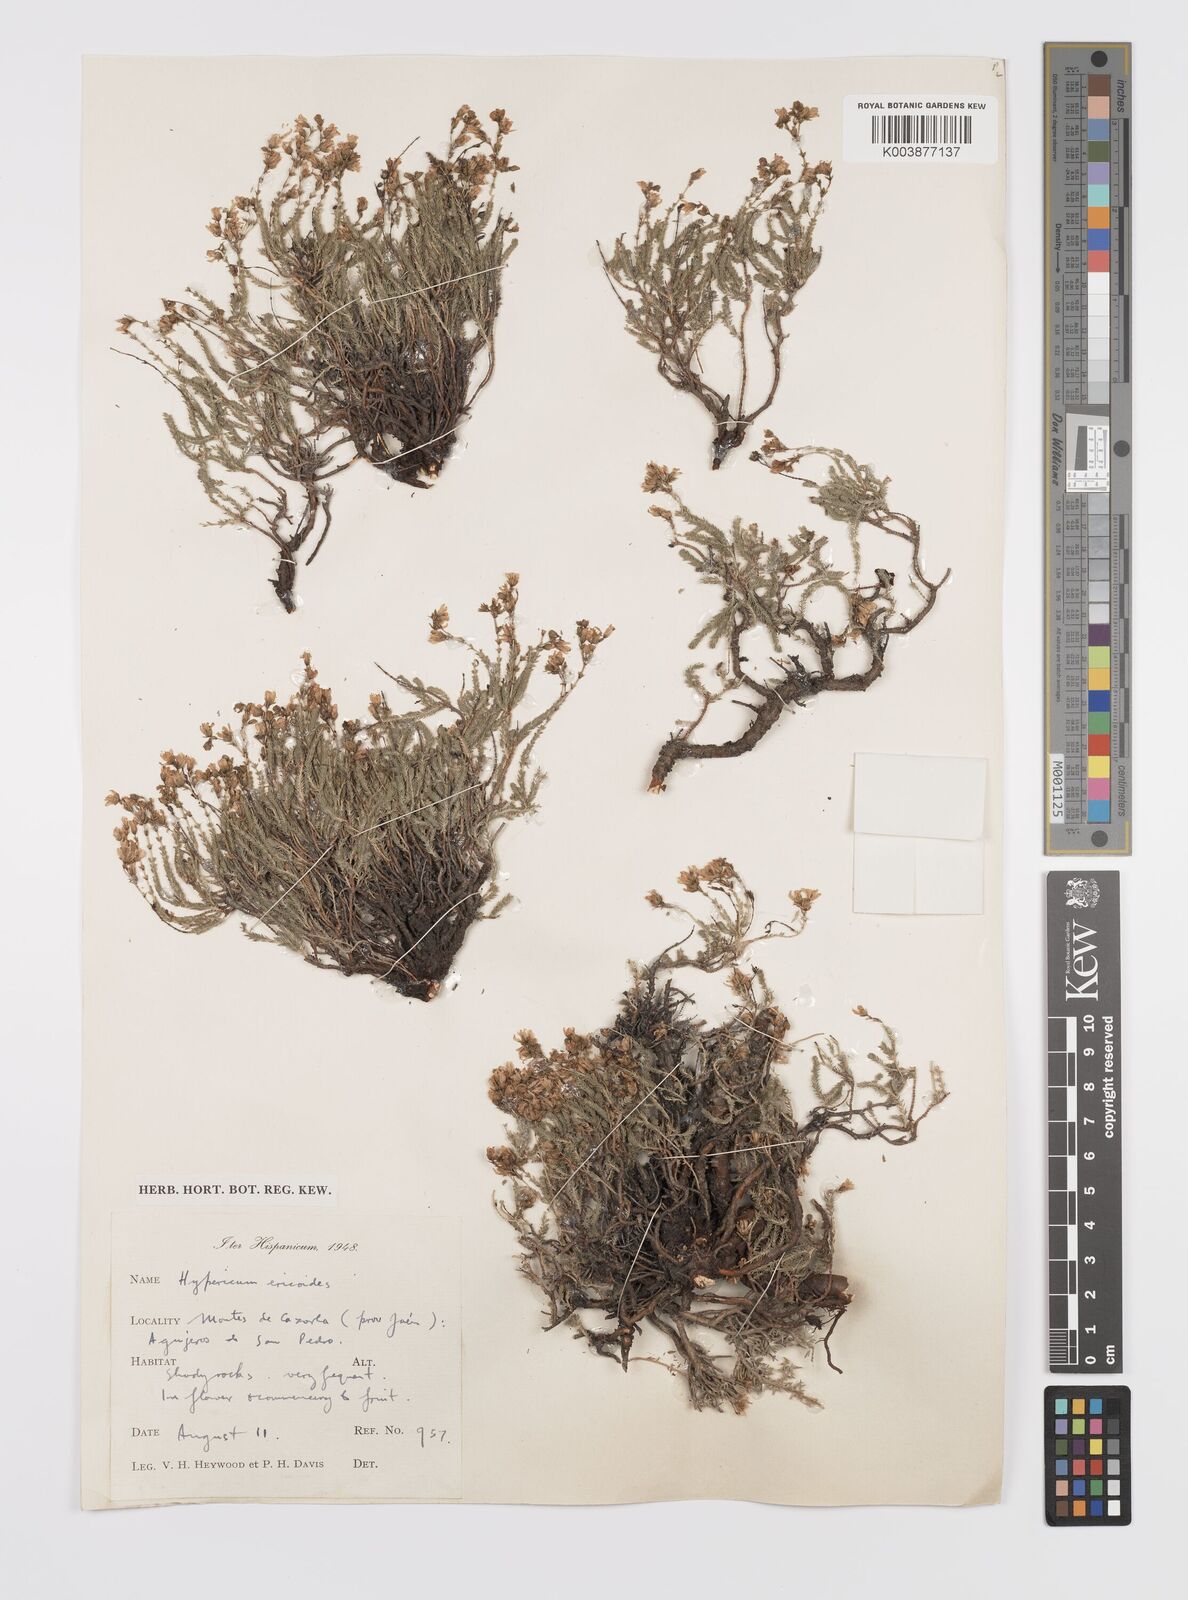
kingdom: Plantae
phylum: Tracheophyta
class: Magnoliopsida
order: Malpighiales
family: Hypericaceae
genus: Hypericum
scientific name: Hypericum ericoides
